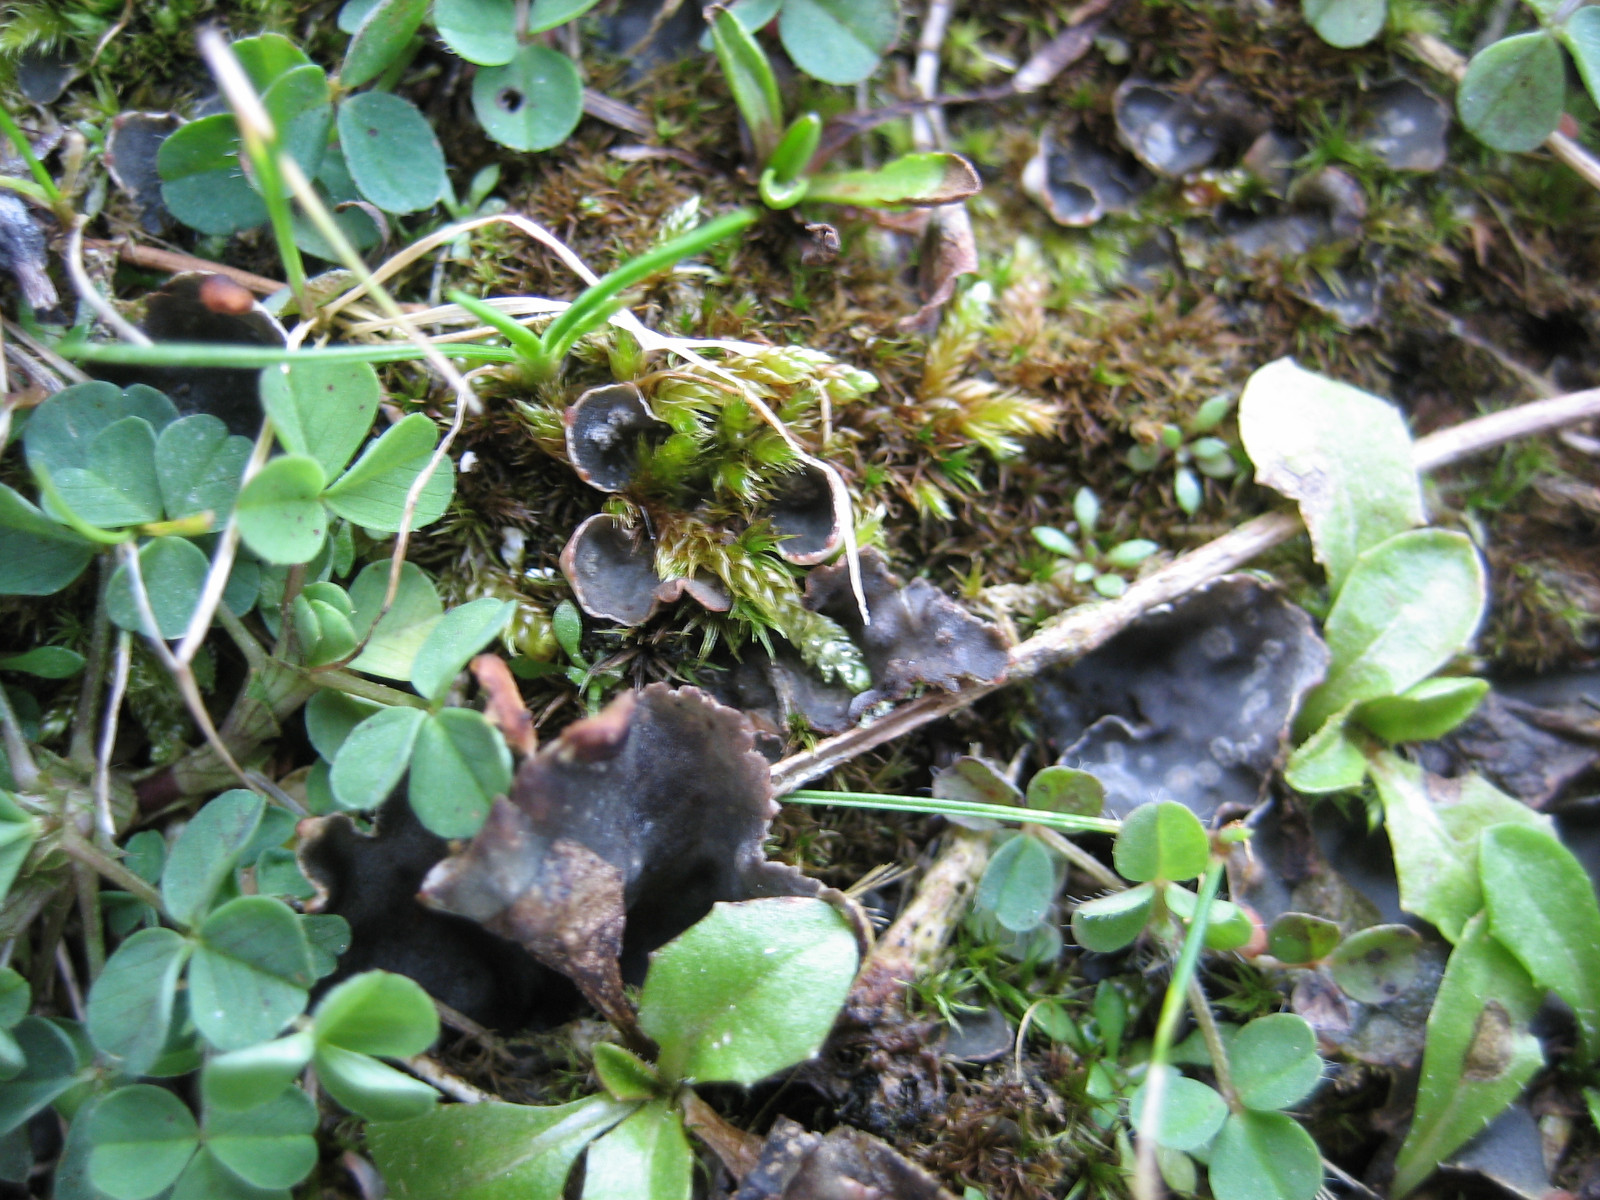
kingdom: Fungi
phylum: Ascomycota
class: Lecanoromycetes
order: Peltigerales
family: Peltigeraceae
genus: Peltigera
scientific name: Peltigera didactyla
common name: liden skjoldlav
